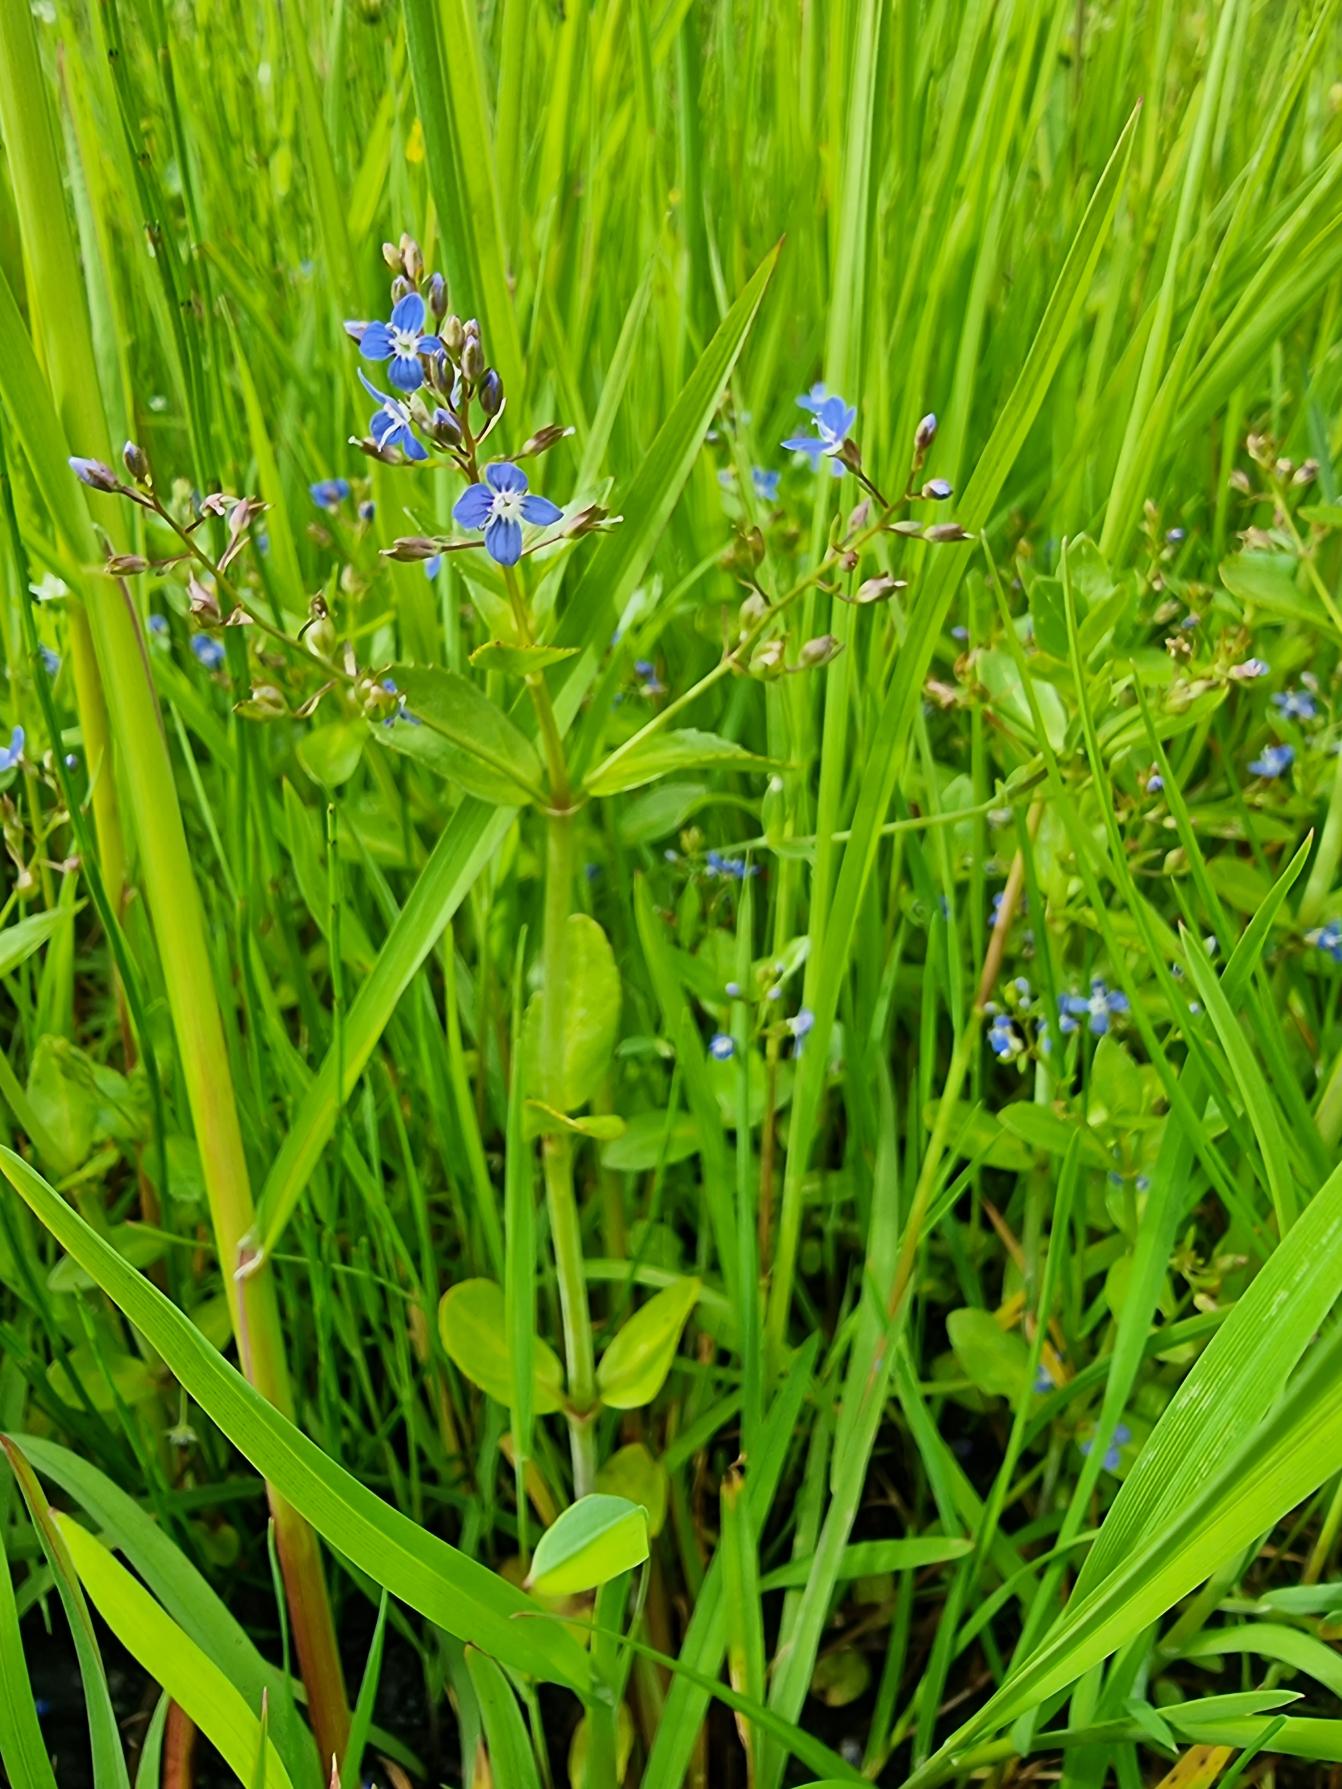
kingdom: Plantae
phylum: Tracheophyta
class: Magnoliopsida
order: Lamiales
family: Plantaginaceae
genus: Veronica
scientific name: Veronica beccabunga
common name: Tykbladet ærenpris
